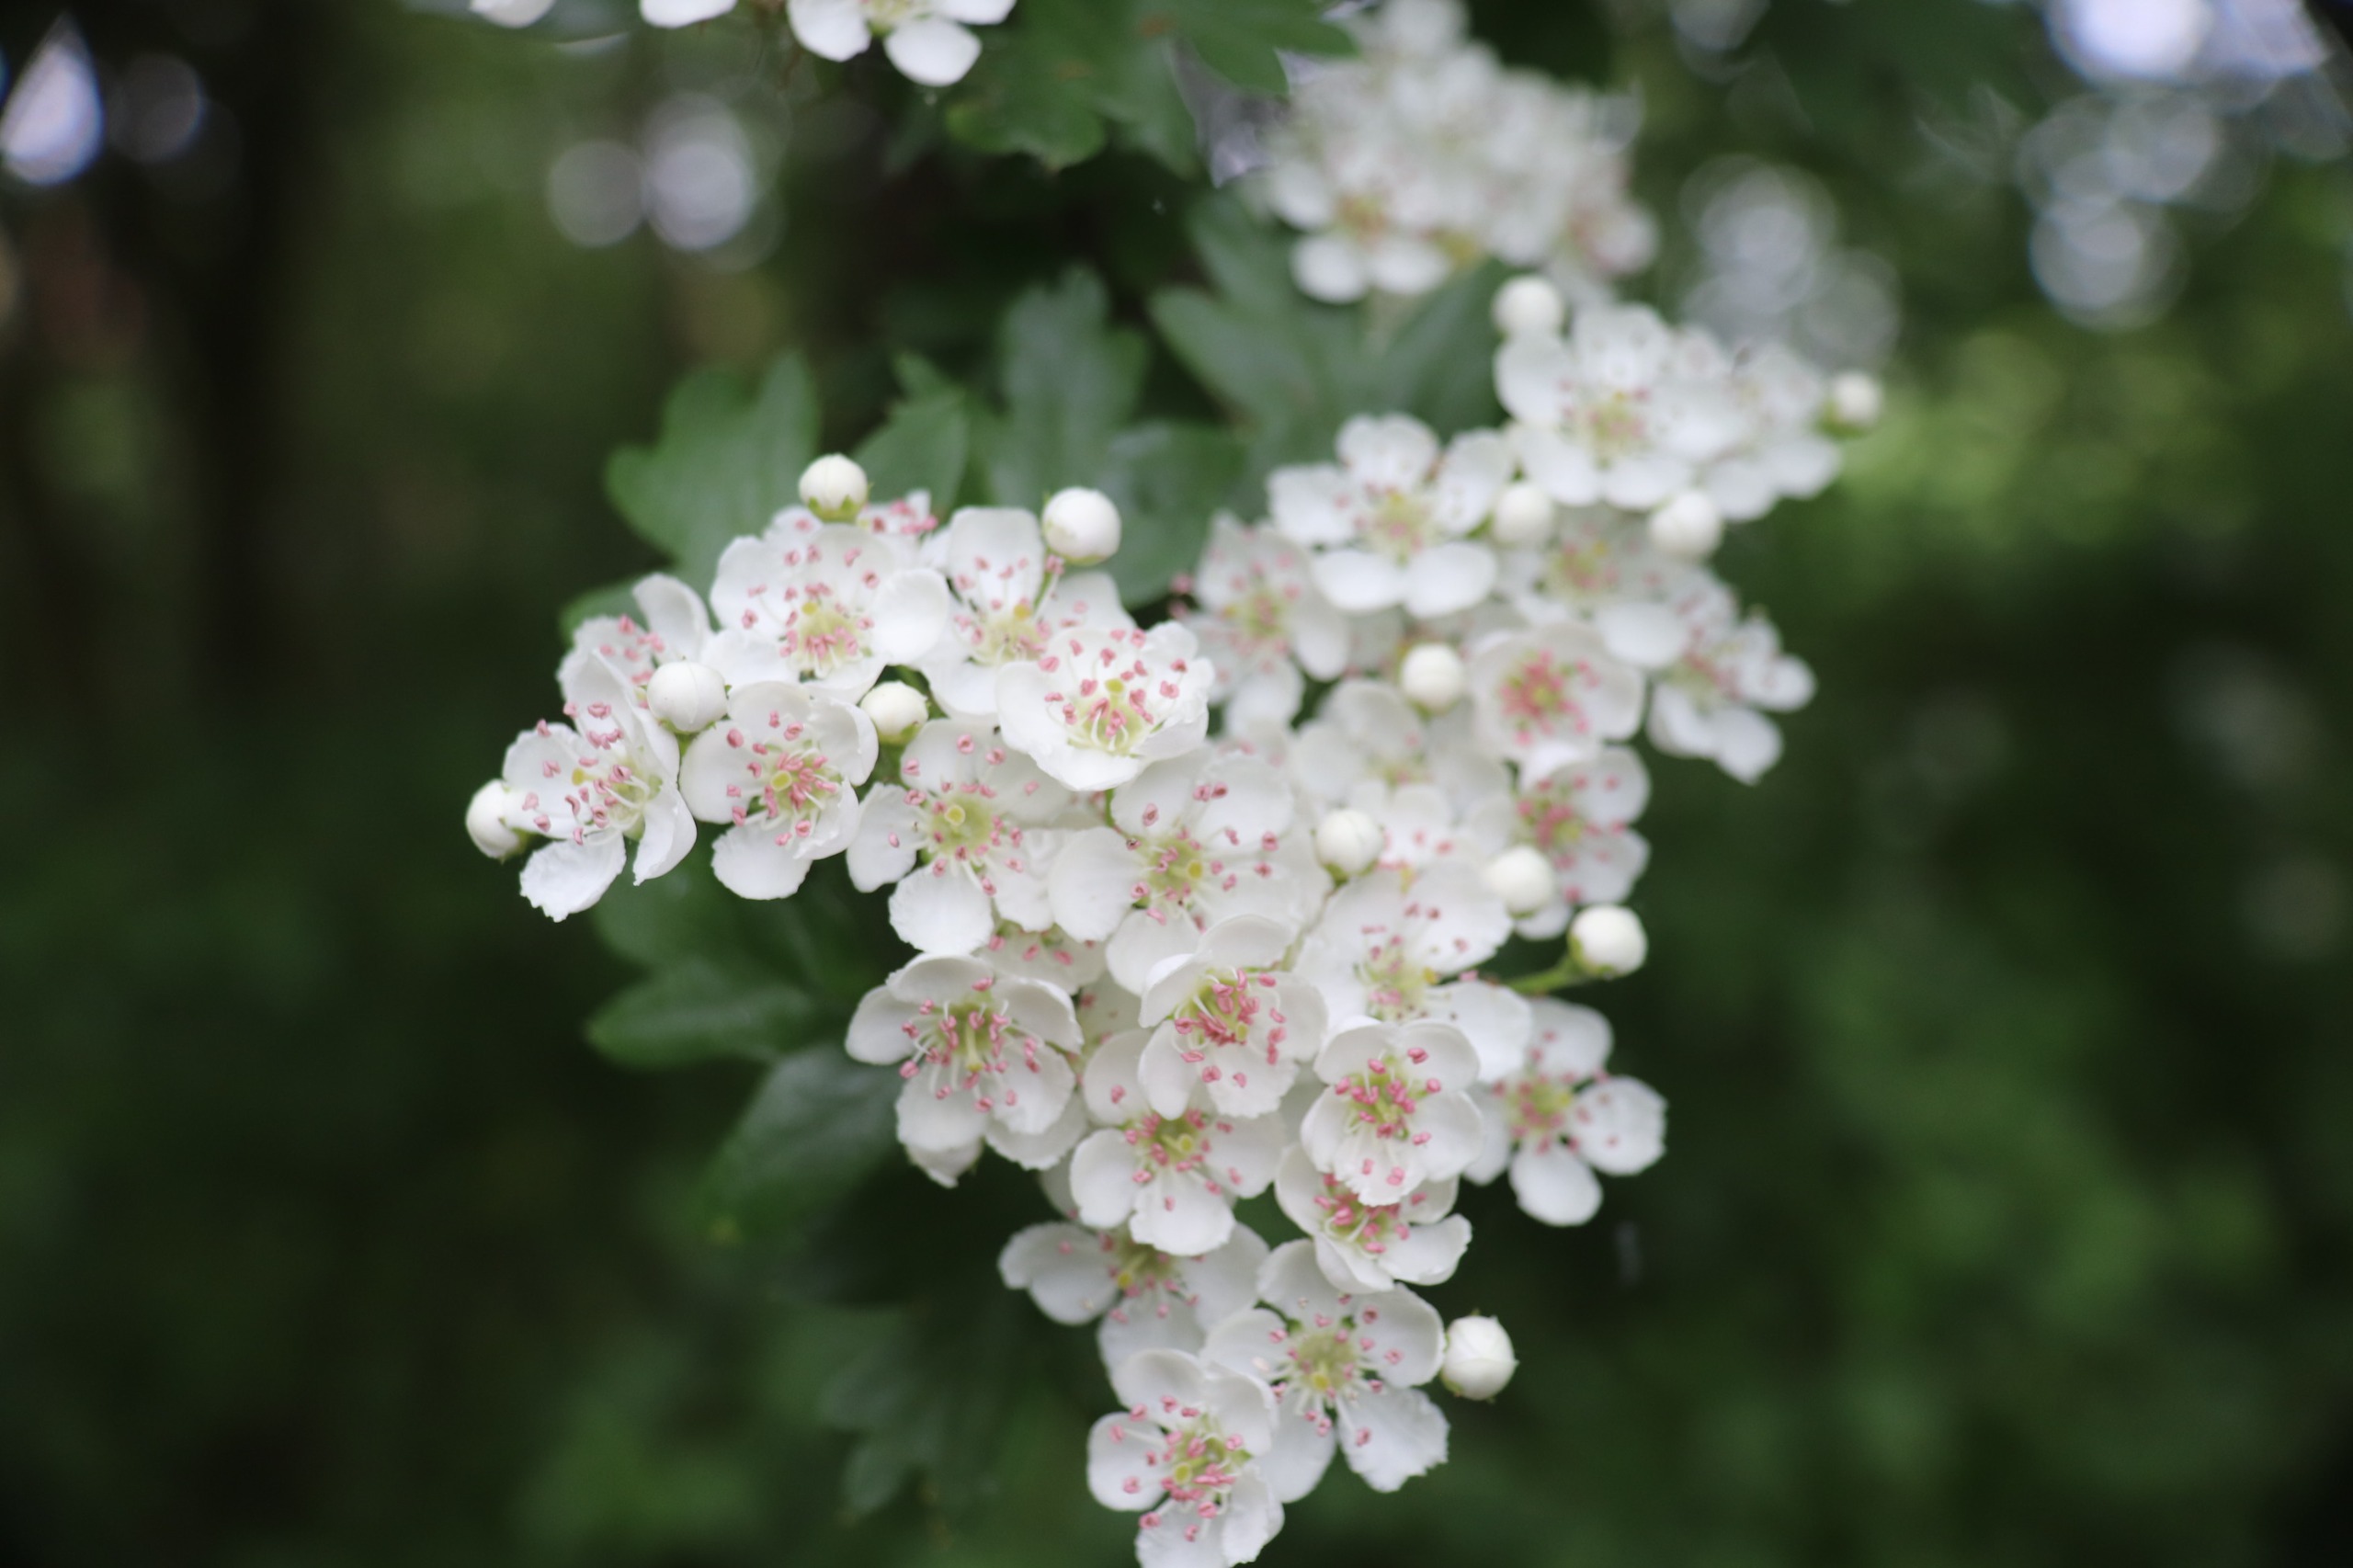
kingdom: Plantae
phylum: Tracheophyta
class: Magnoliopsida
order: Rosales
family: Rosaceae
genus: Crataegus
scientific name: Crataegus monogyna
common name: Engriflet hvidtjørn
